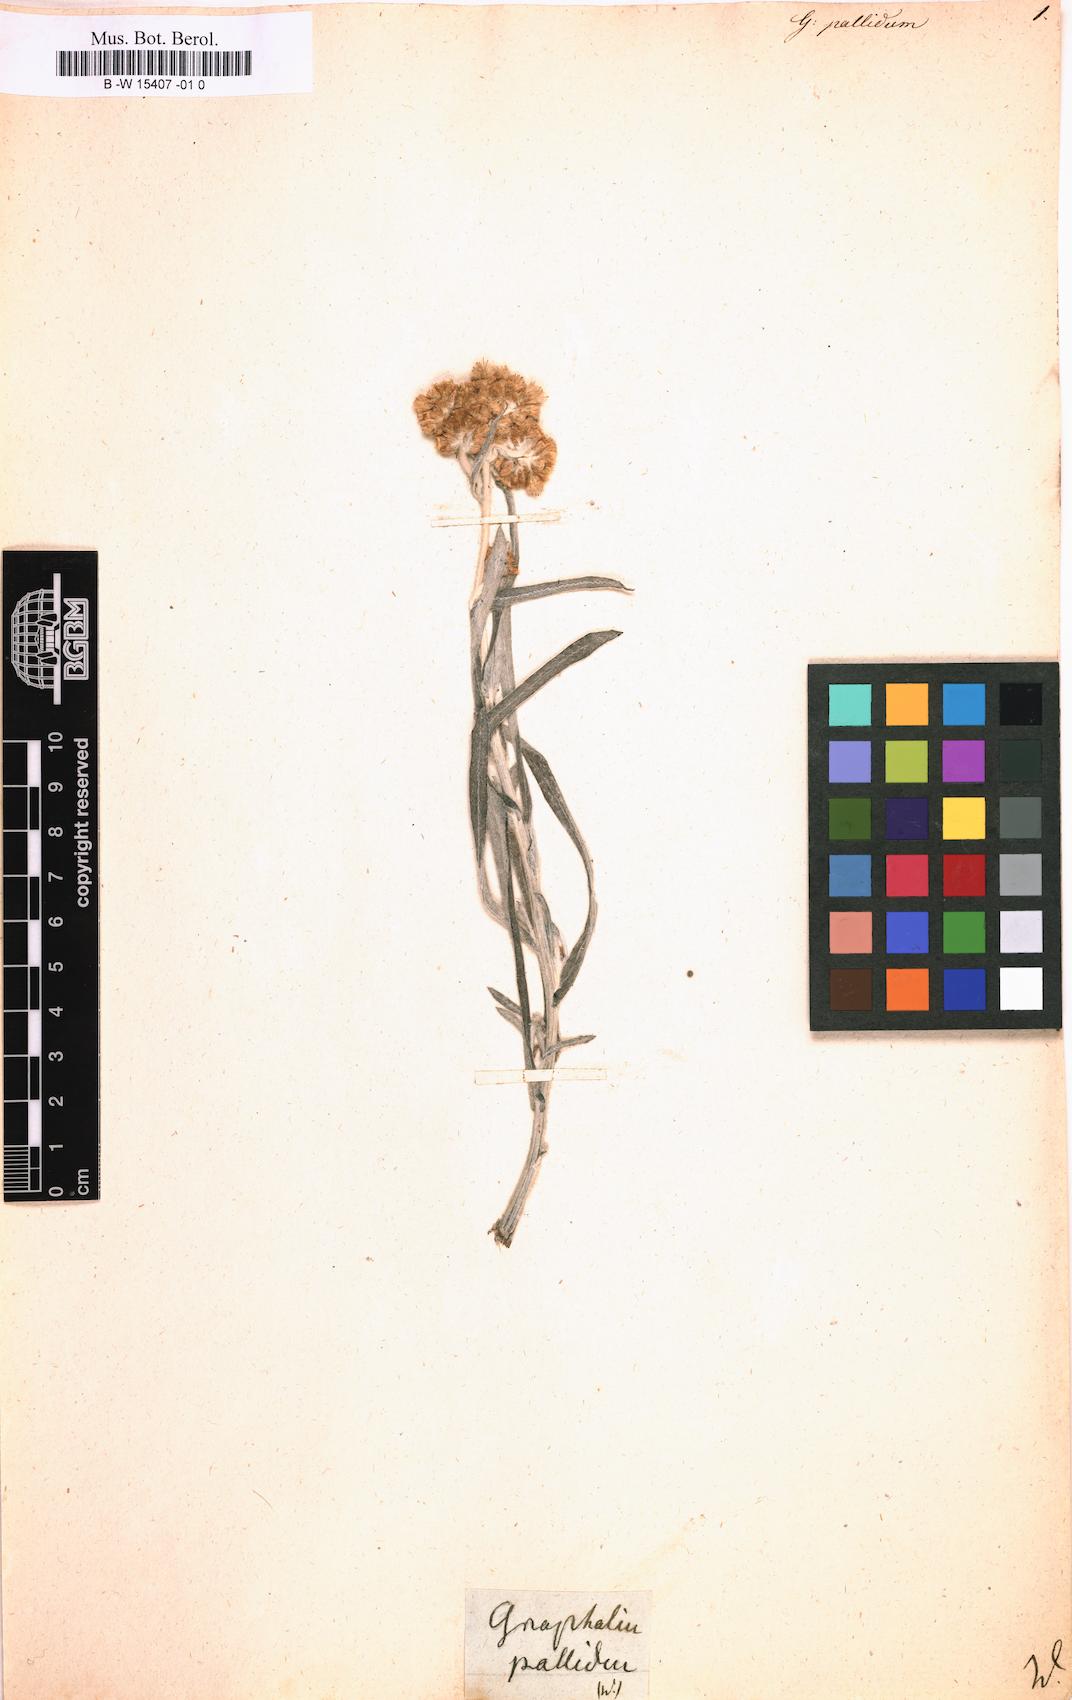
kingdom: Plantae
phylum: Tracheophyta
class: Magnoliopsida
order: Asterales
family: Asteraceae
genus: Helichrysum
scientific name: Helichrysum luteoalbum
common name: Daisy
